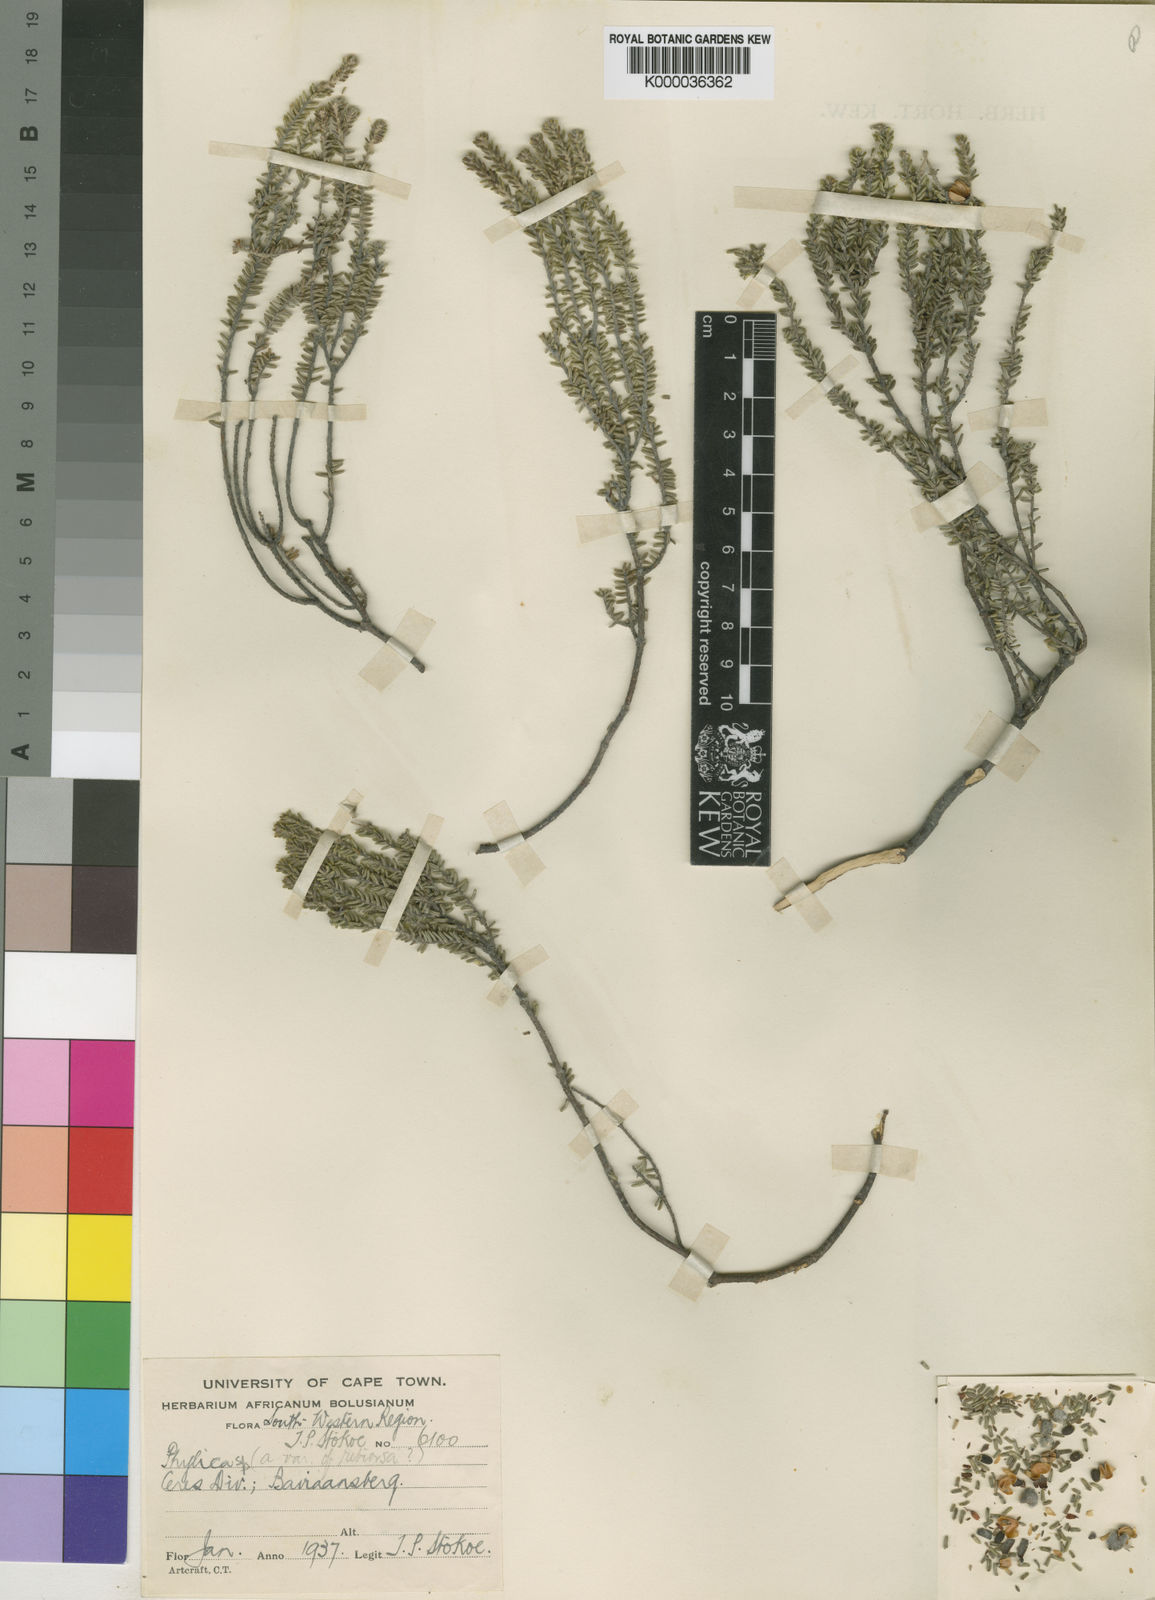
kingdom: Plantae
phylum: Tracheophyta
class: Magnoliopsida
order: Rosales
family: Rhamnaceae
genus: Phylica
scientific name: Phylica obtusifolia
